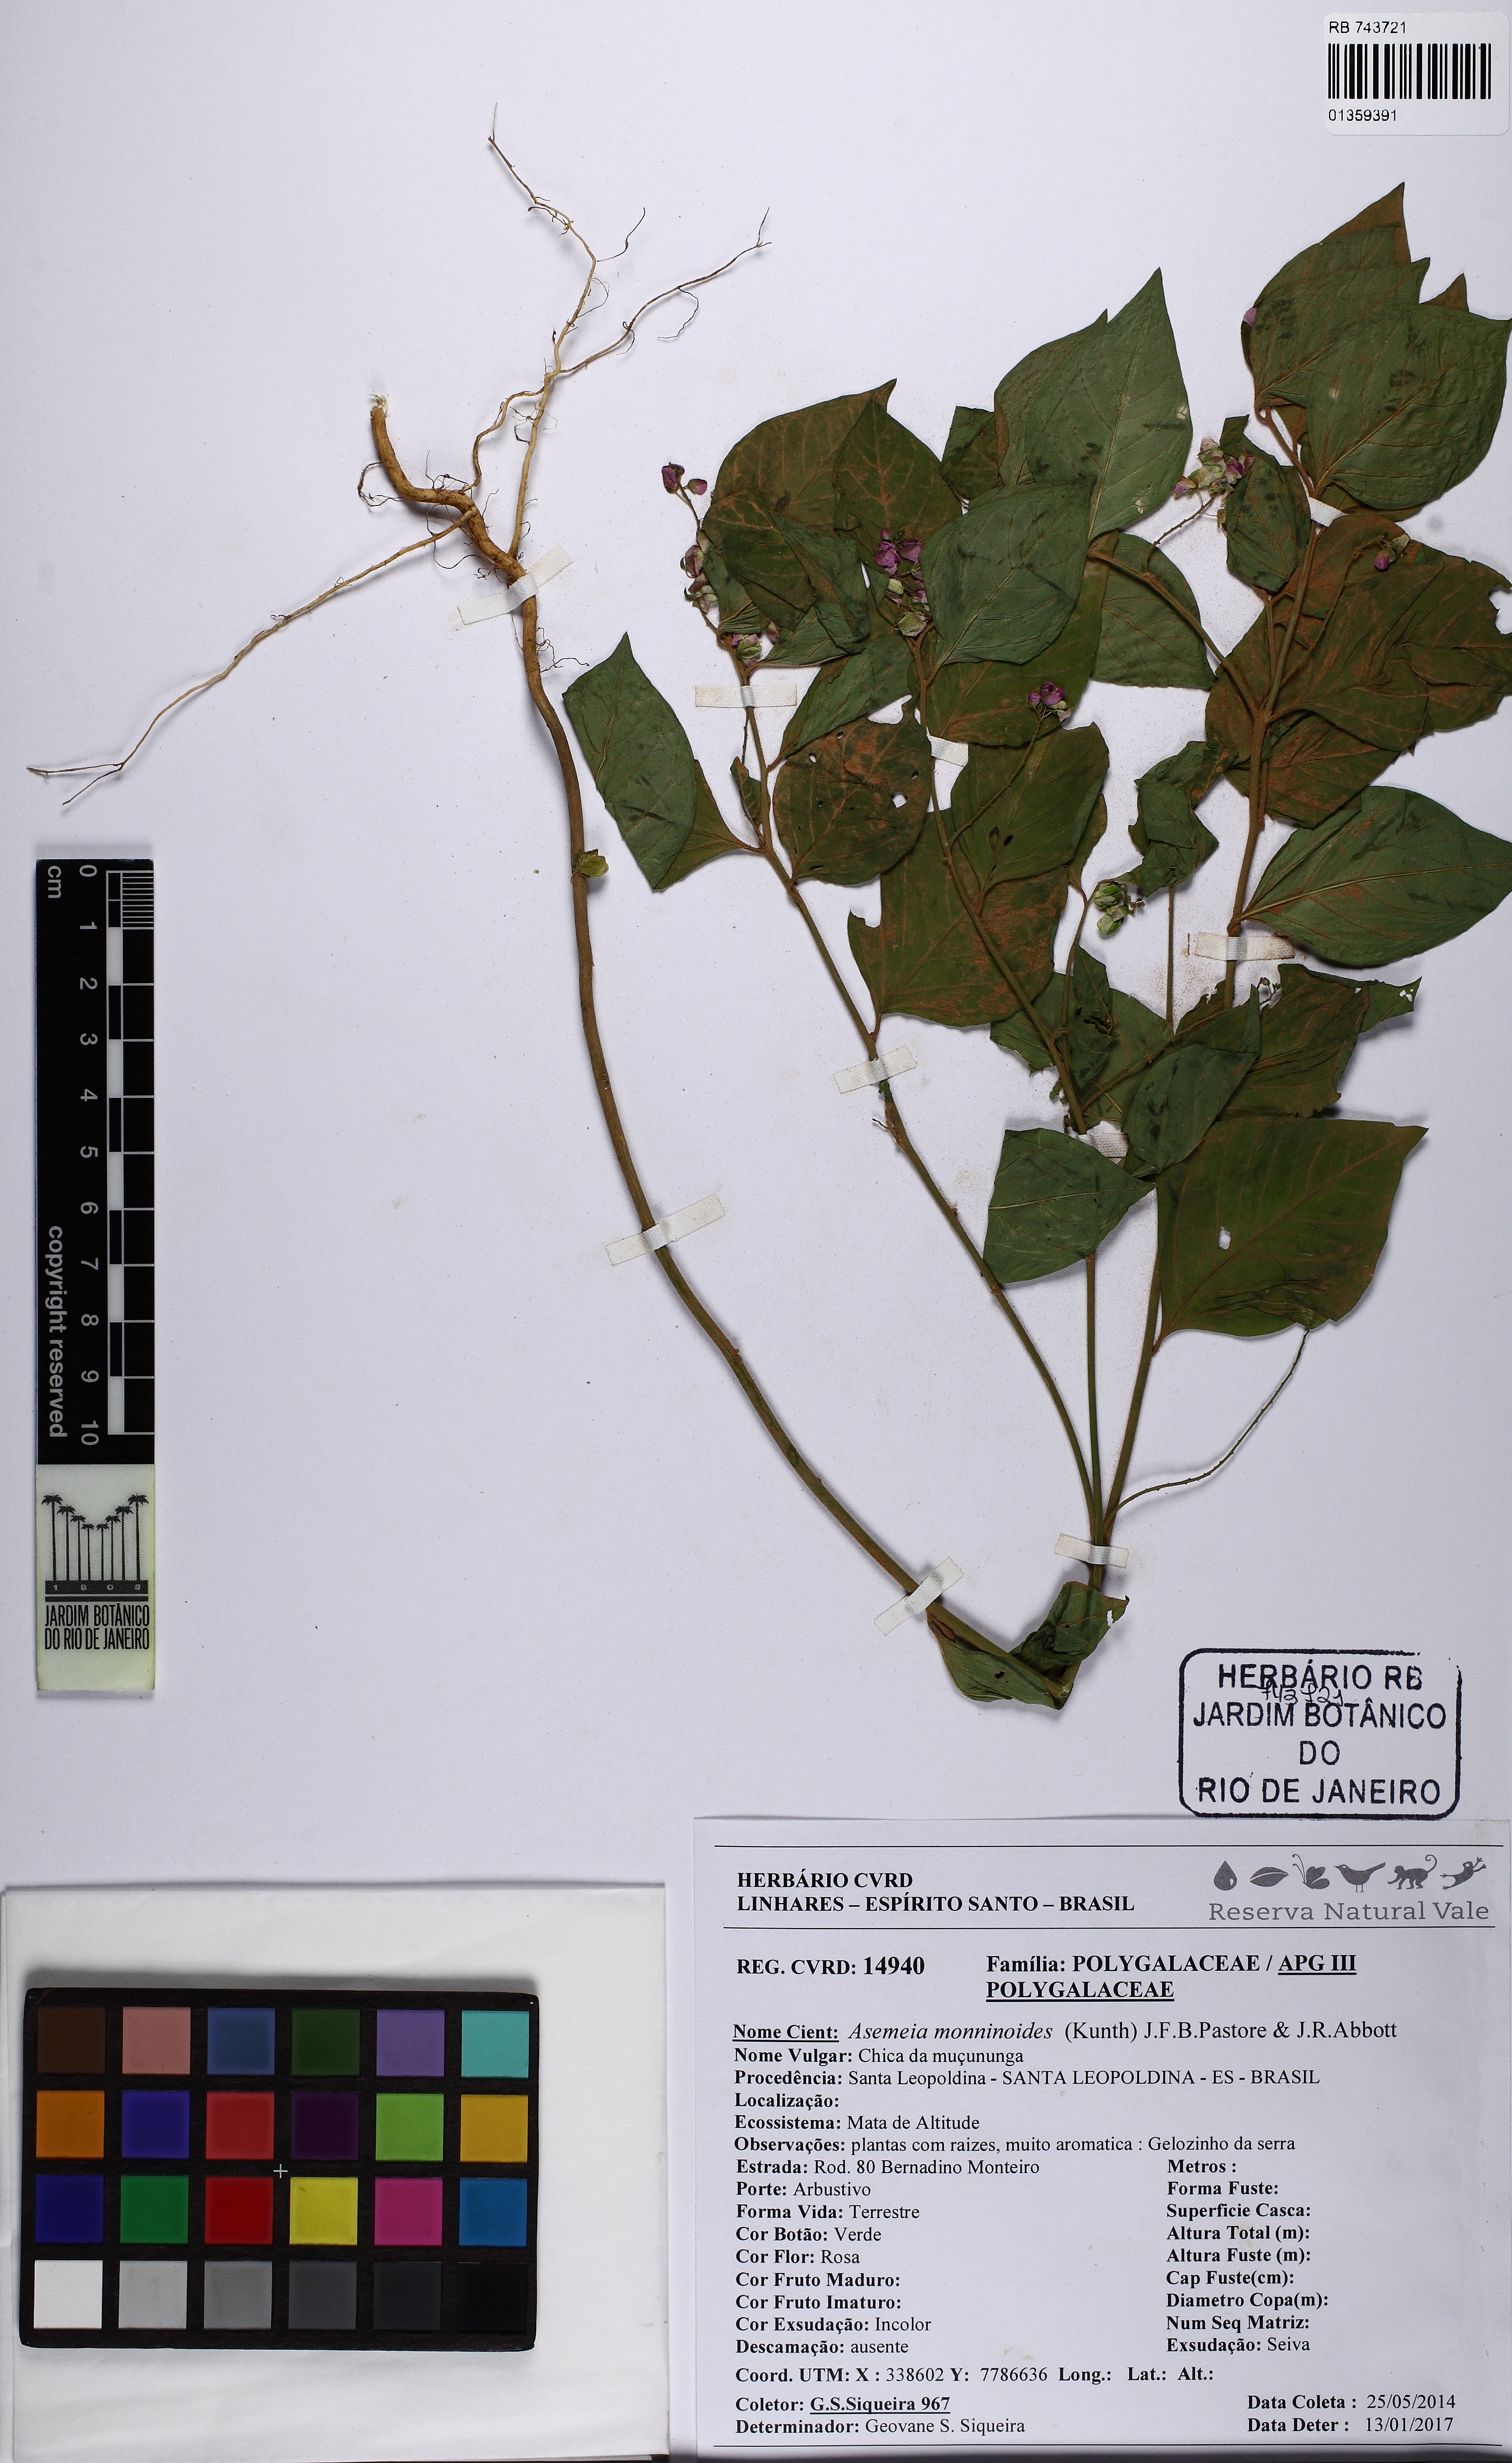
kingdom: Plantae
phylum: Tracheophyta
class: Magnoliopsida
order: Fabales
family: Polygalaceae
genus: Asemeia
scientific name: Asemeia monninoides
